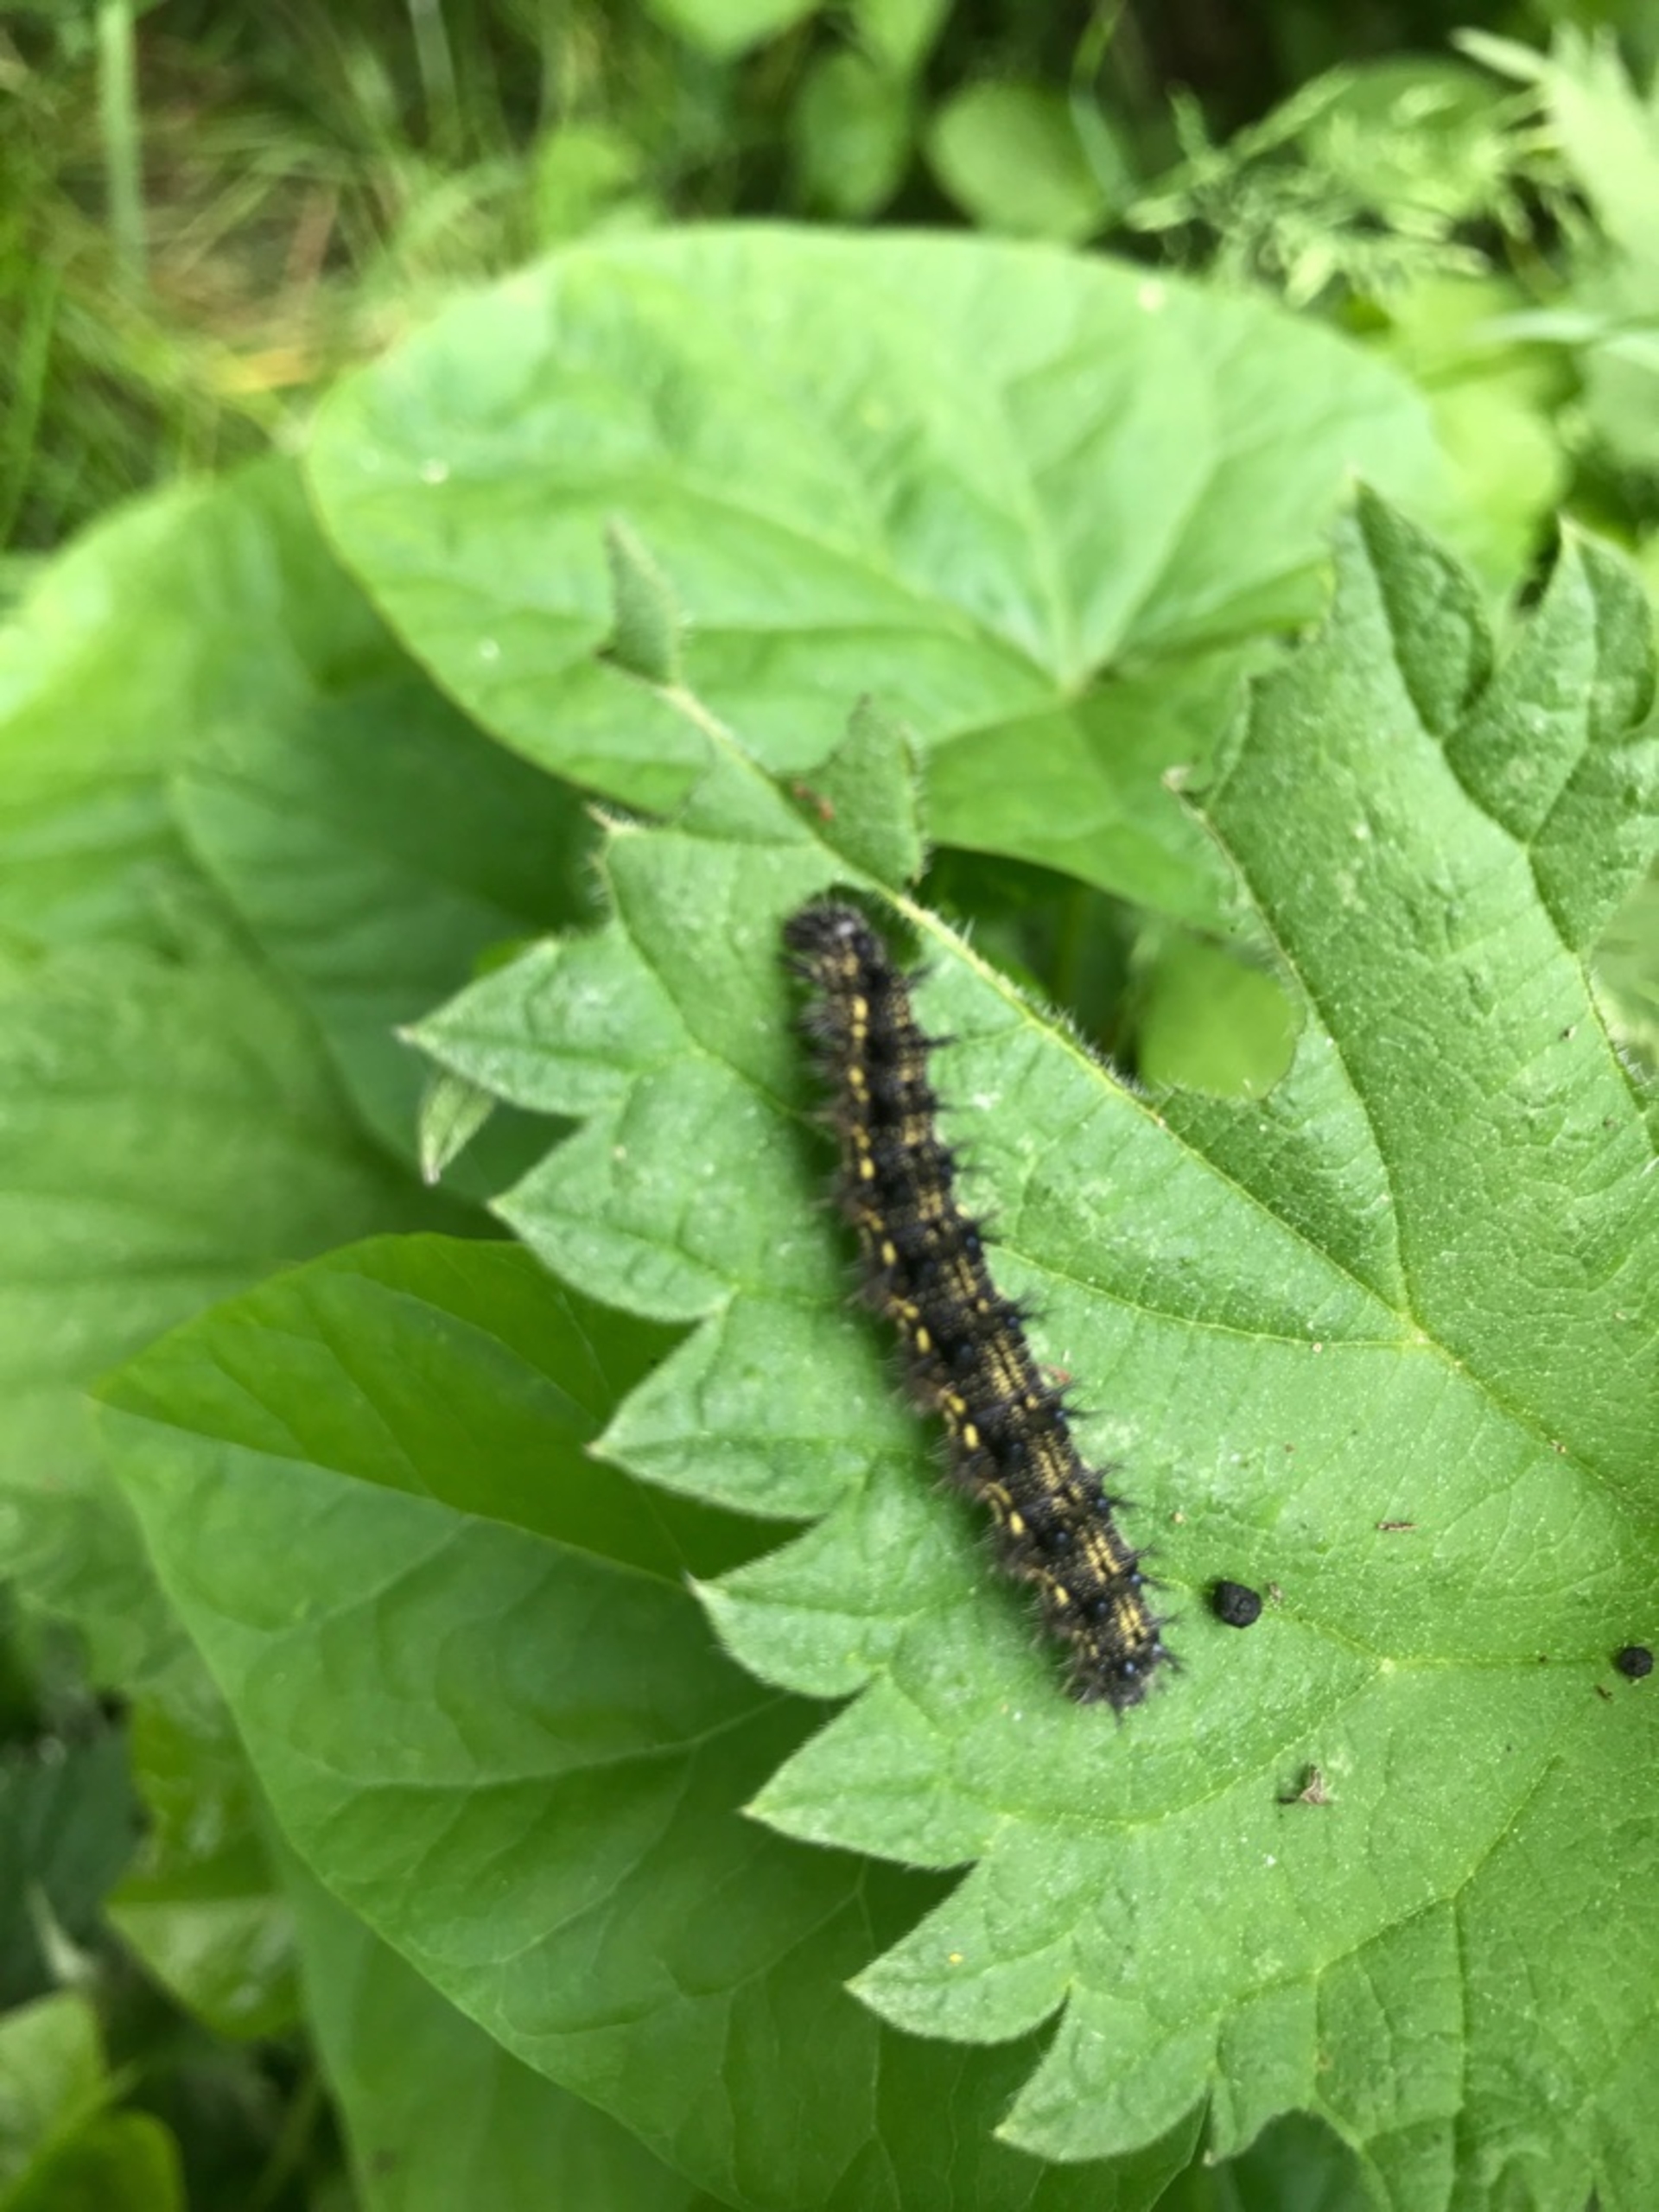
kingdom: Animalia
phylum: Arthropoda
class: Insecta
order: Lepidoptera
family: Nymphalidae
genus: Aglais
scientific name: Aglais urticae
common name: Nældens takvinge
